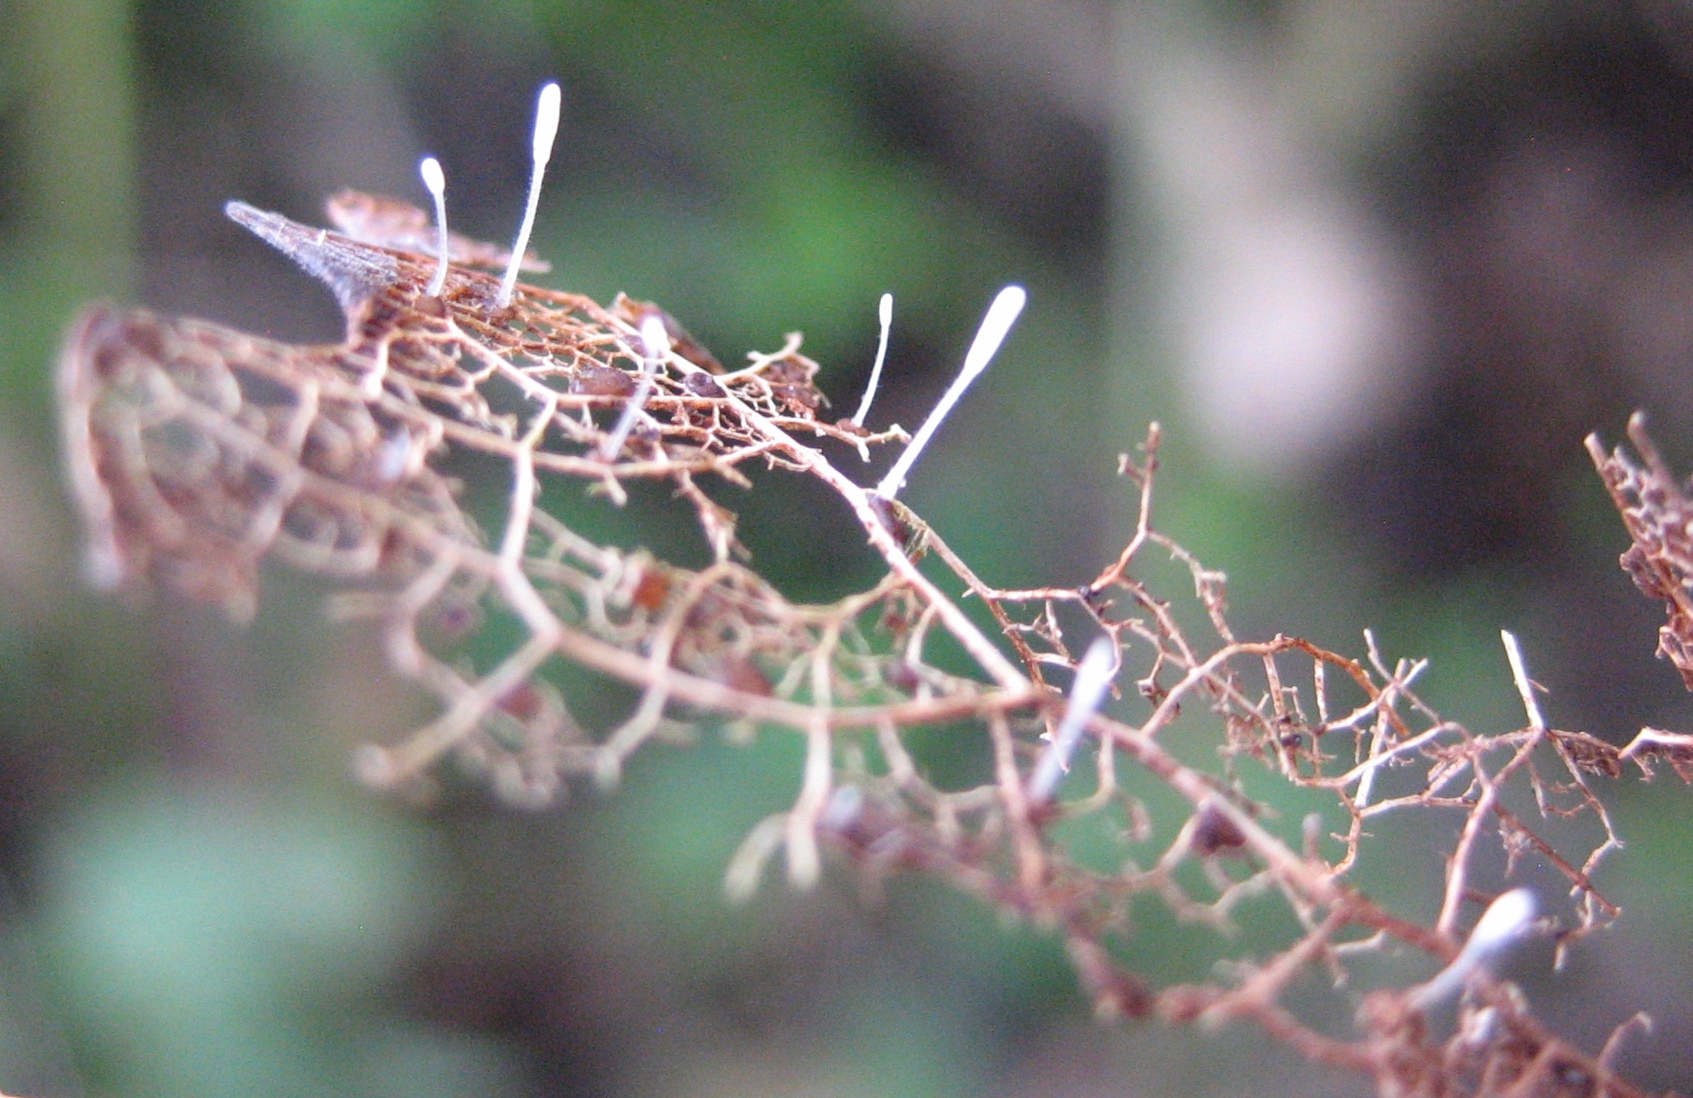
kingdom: Fungi
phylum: Basidiomycota
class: Agaricomycetes
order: Agaricales
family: Typhulaceae
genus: Typhula
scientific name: Typhula setipes
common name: liden trådkølle
